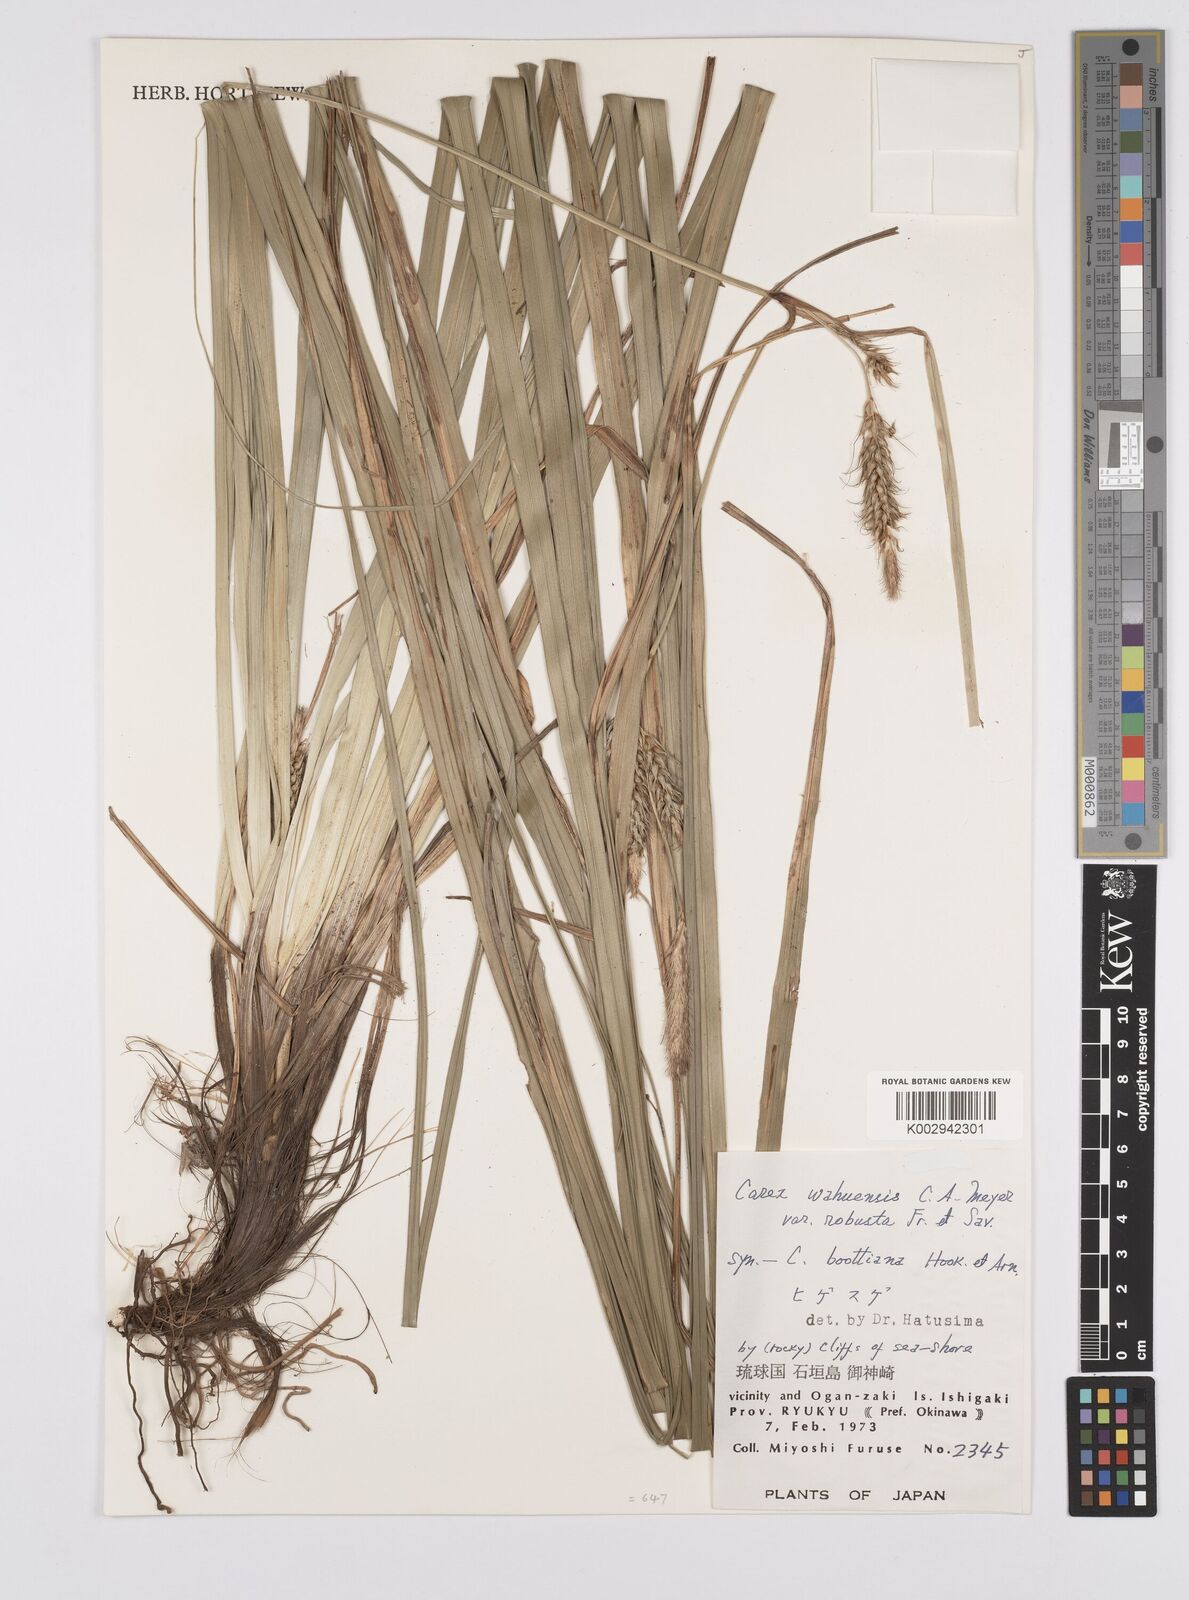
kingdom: Plantae
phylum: Tracheophyta
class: Liliopsida
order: Poales
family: Cyperaceae
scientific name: Cyperaceae
